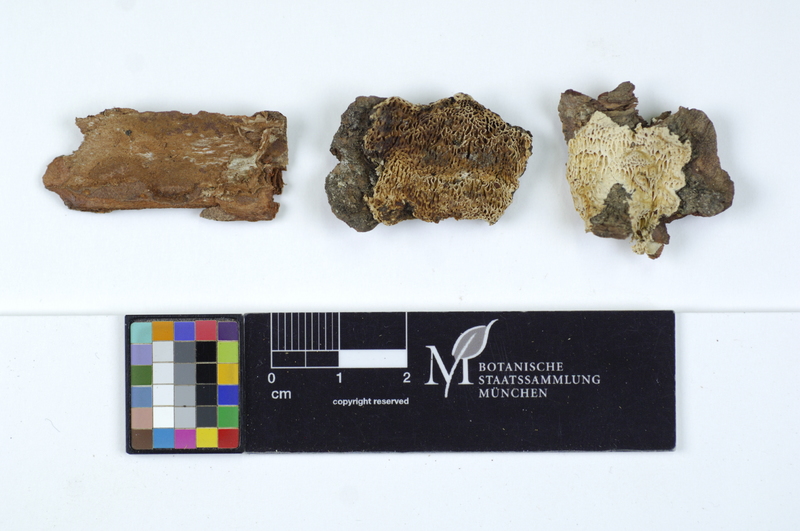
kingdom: Fungi
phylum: Basidiomycota
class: Agaricomycetes
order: Polyporales
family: Fomitopsidaceae
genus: Antrodia
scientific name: Antrodia ramentacea
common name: Honeycomb crust
